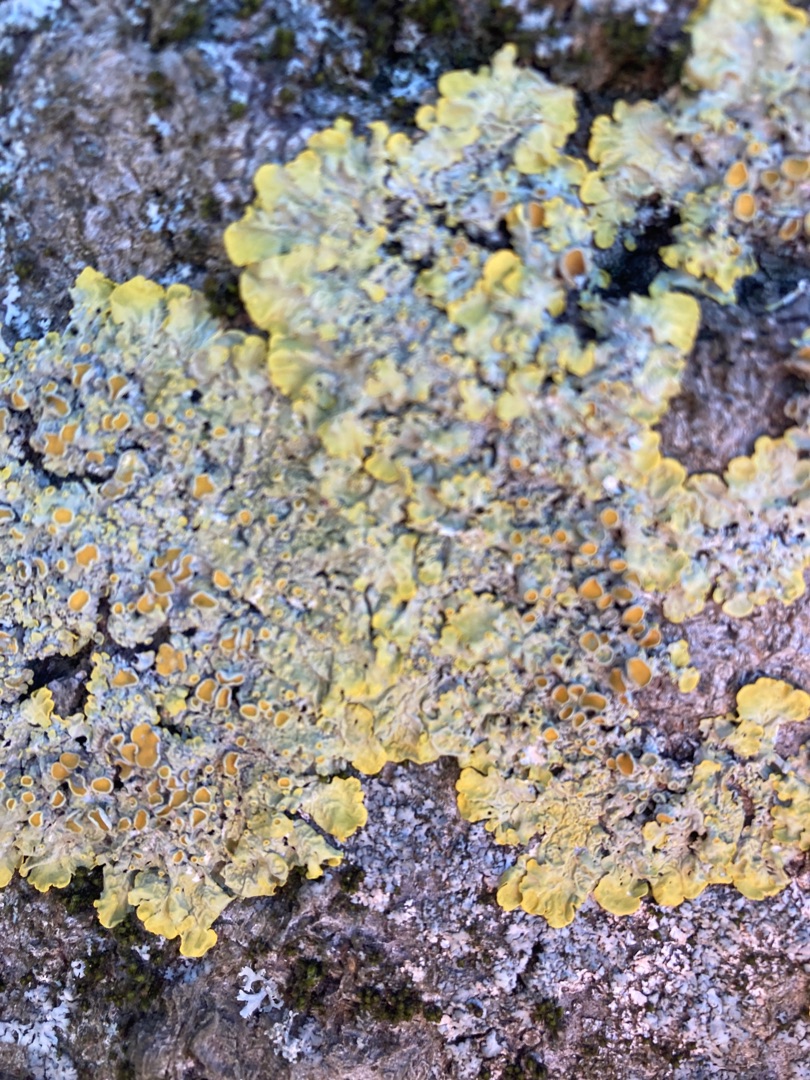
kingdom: Fungi
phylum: Ascomycota
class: Lecanoromycetes
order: Teloschistales
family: Teloschistaceae
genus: Xanthoria
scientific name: Xanthoria parietina
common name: Almindelig væggelav
